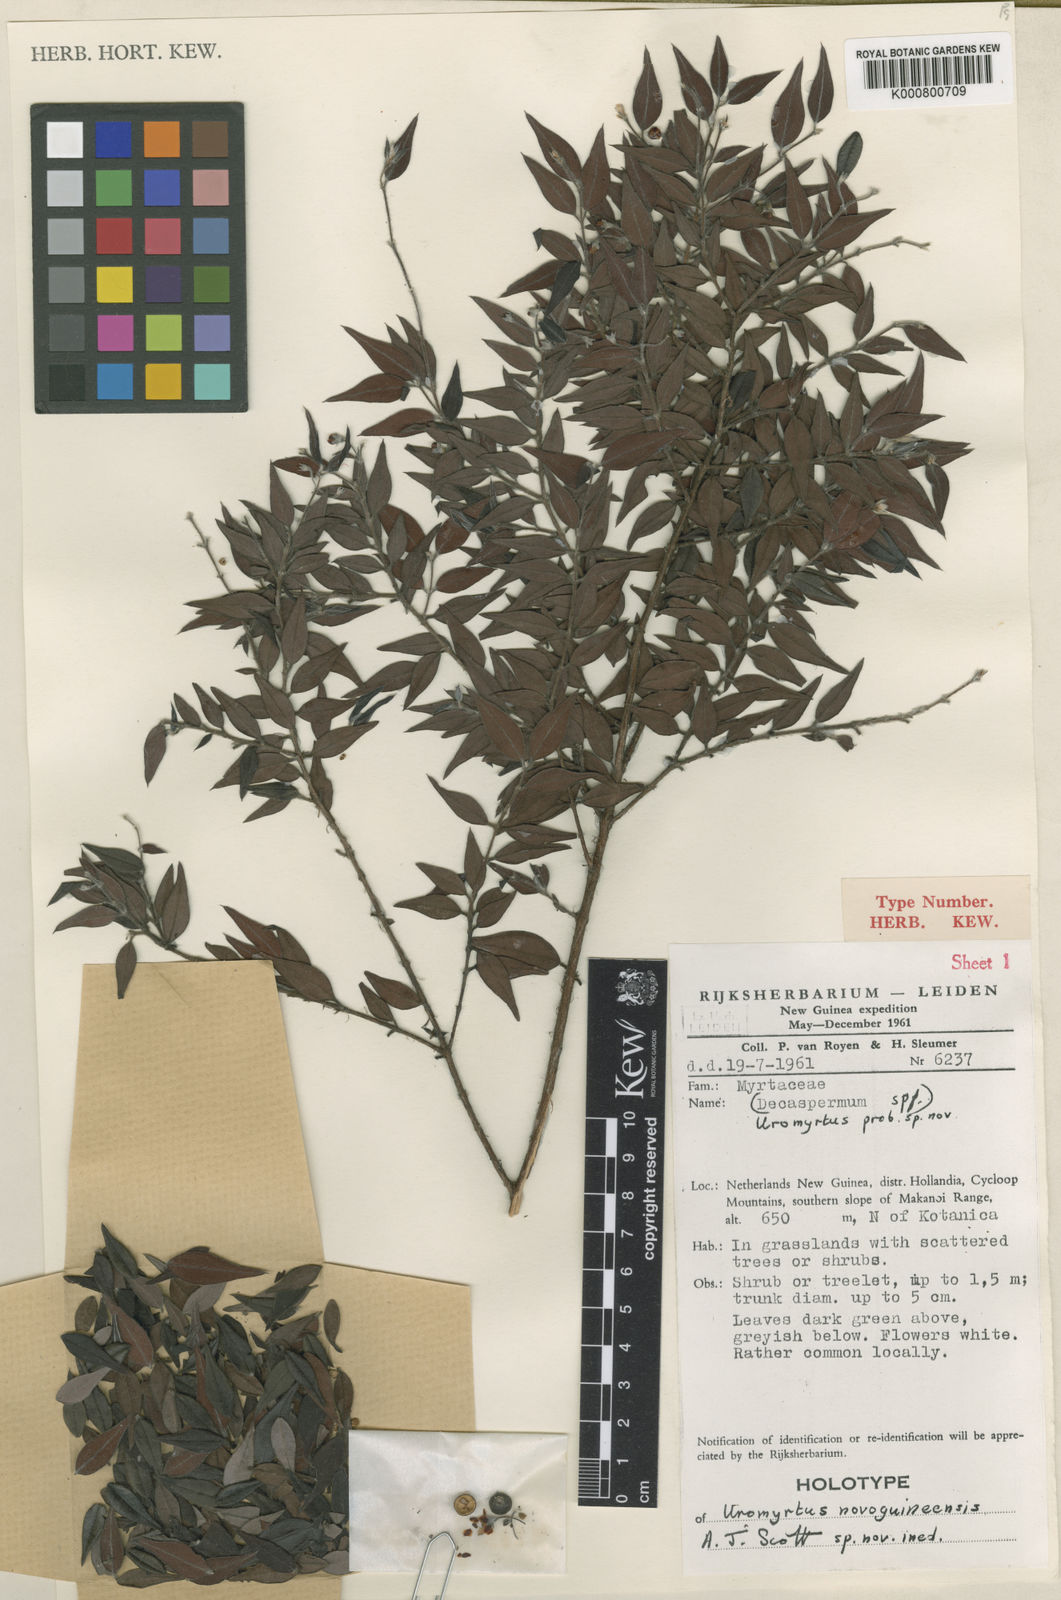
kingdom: Plantae
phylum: Tracheophyta
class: Magnoliopsida
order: Myrtales
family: Myrtaceae
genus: Uromyrtus
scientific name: Uromyrtus novoguineensis
